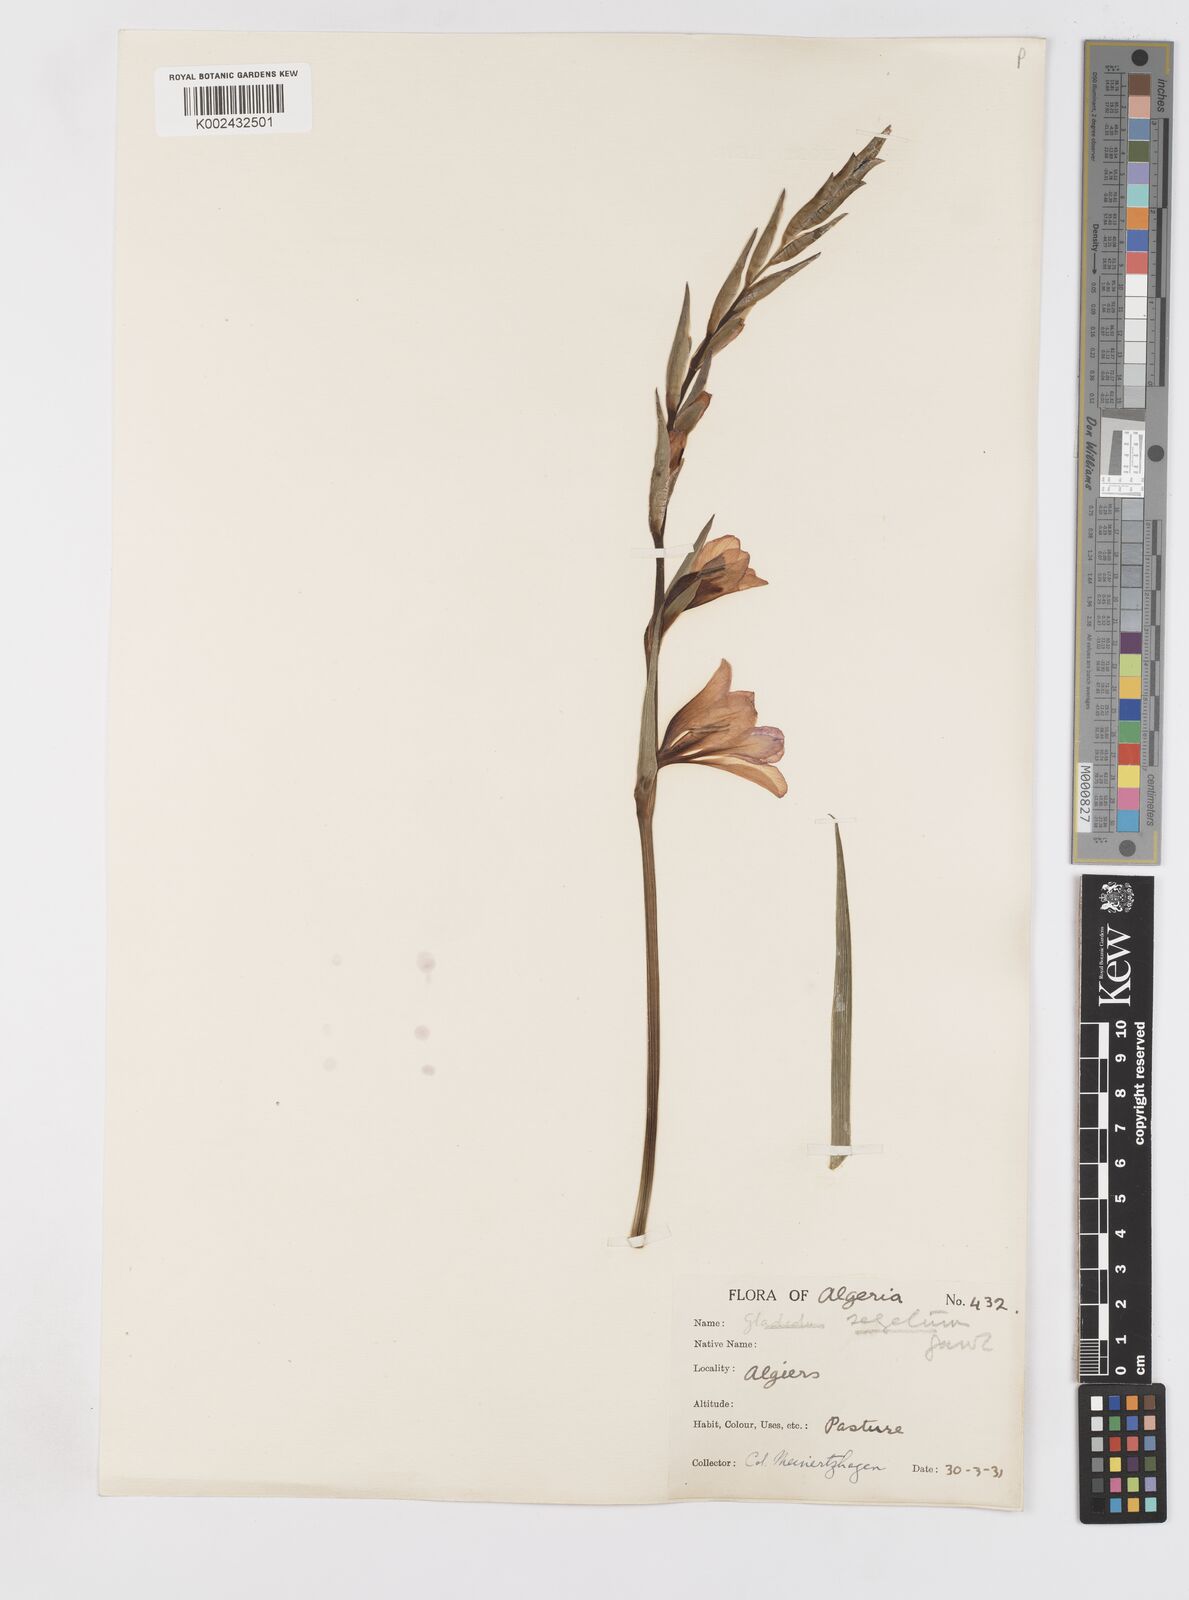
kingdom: Plantae
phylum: Tracheophyta
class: Liliopsida
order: Asparagales
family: Iridaceae
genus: Gladiolus
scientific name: Gladiolus italicus
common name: Field gladiolus
